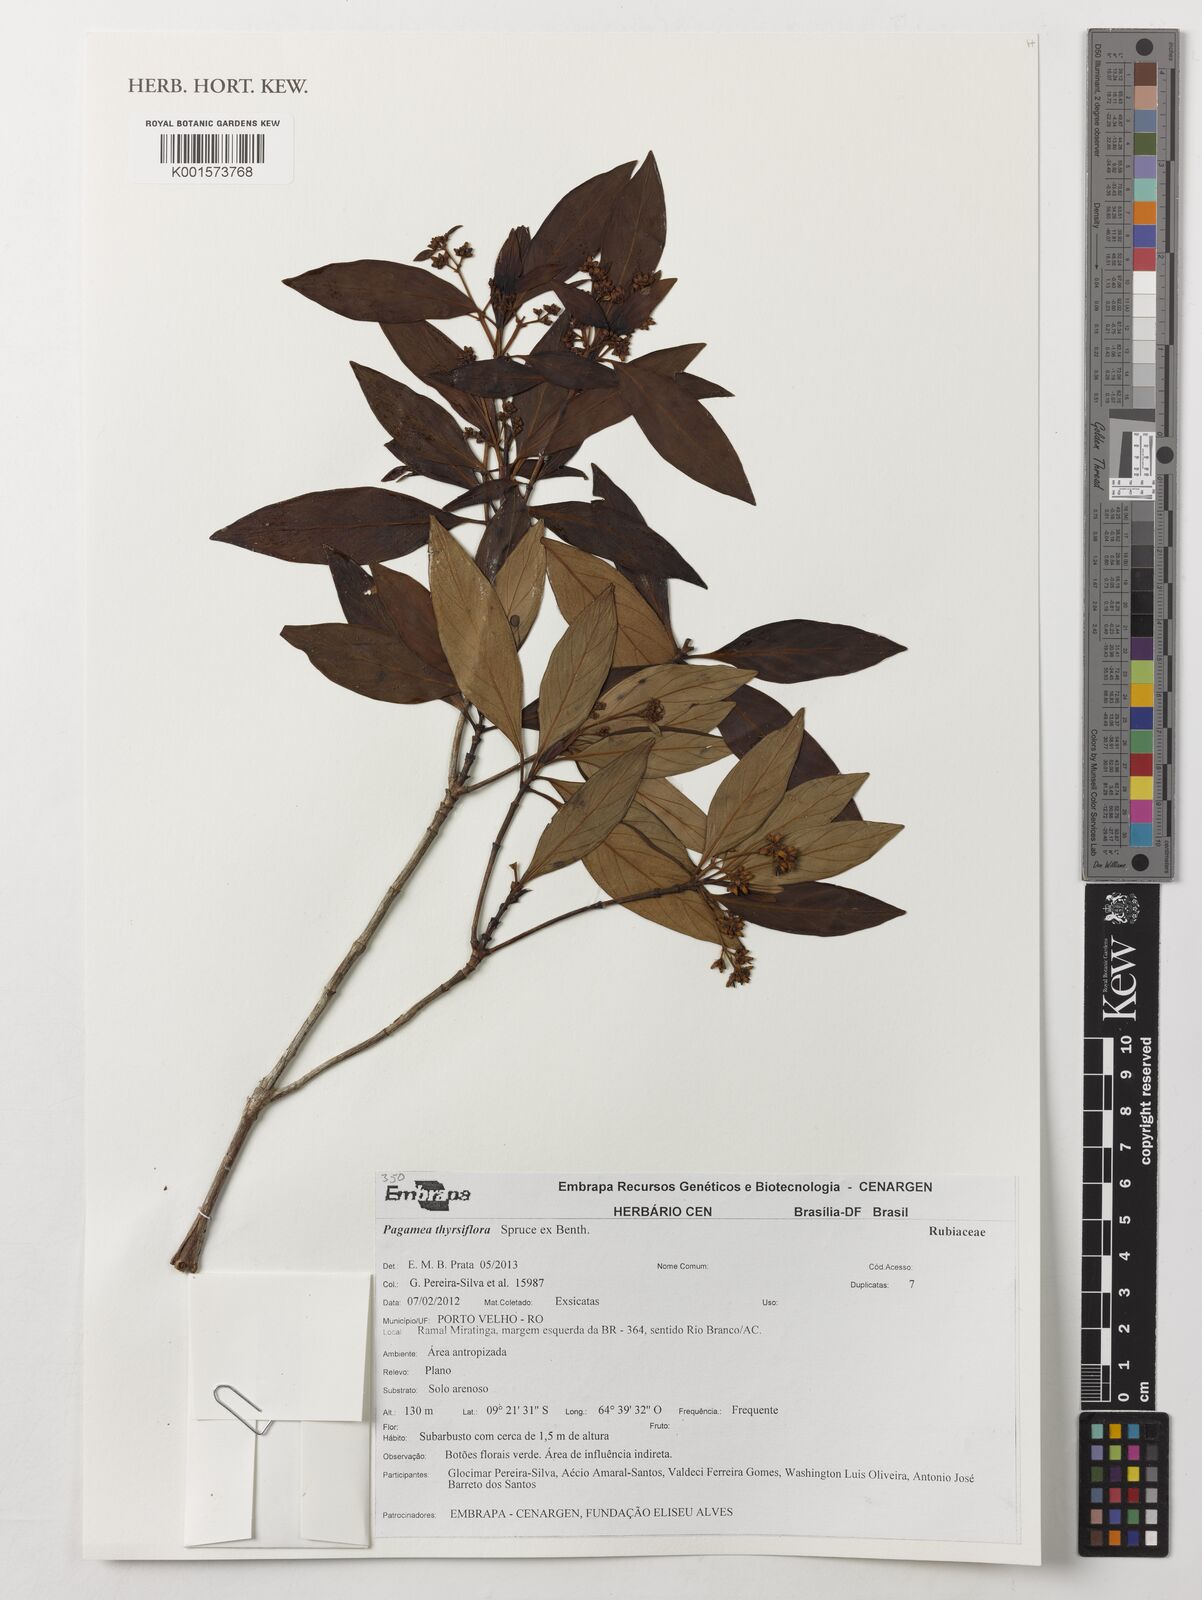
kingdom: Plantae
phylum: Tracheophyta
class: Magnoliopsida
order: Gentianales
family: Rubiaceae
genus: Pagamea
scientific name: Pagamea thyrsiflora
